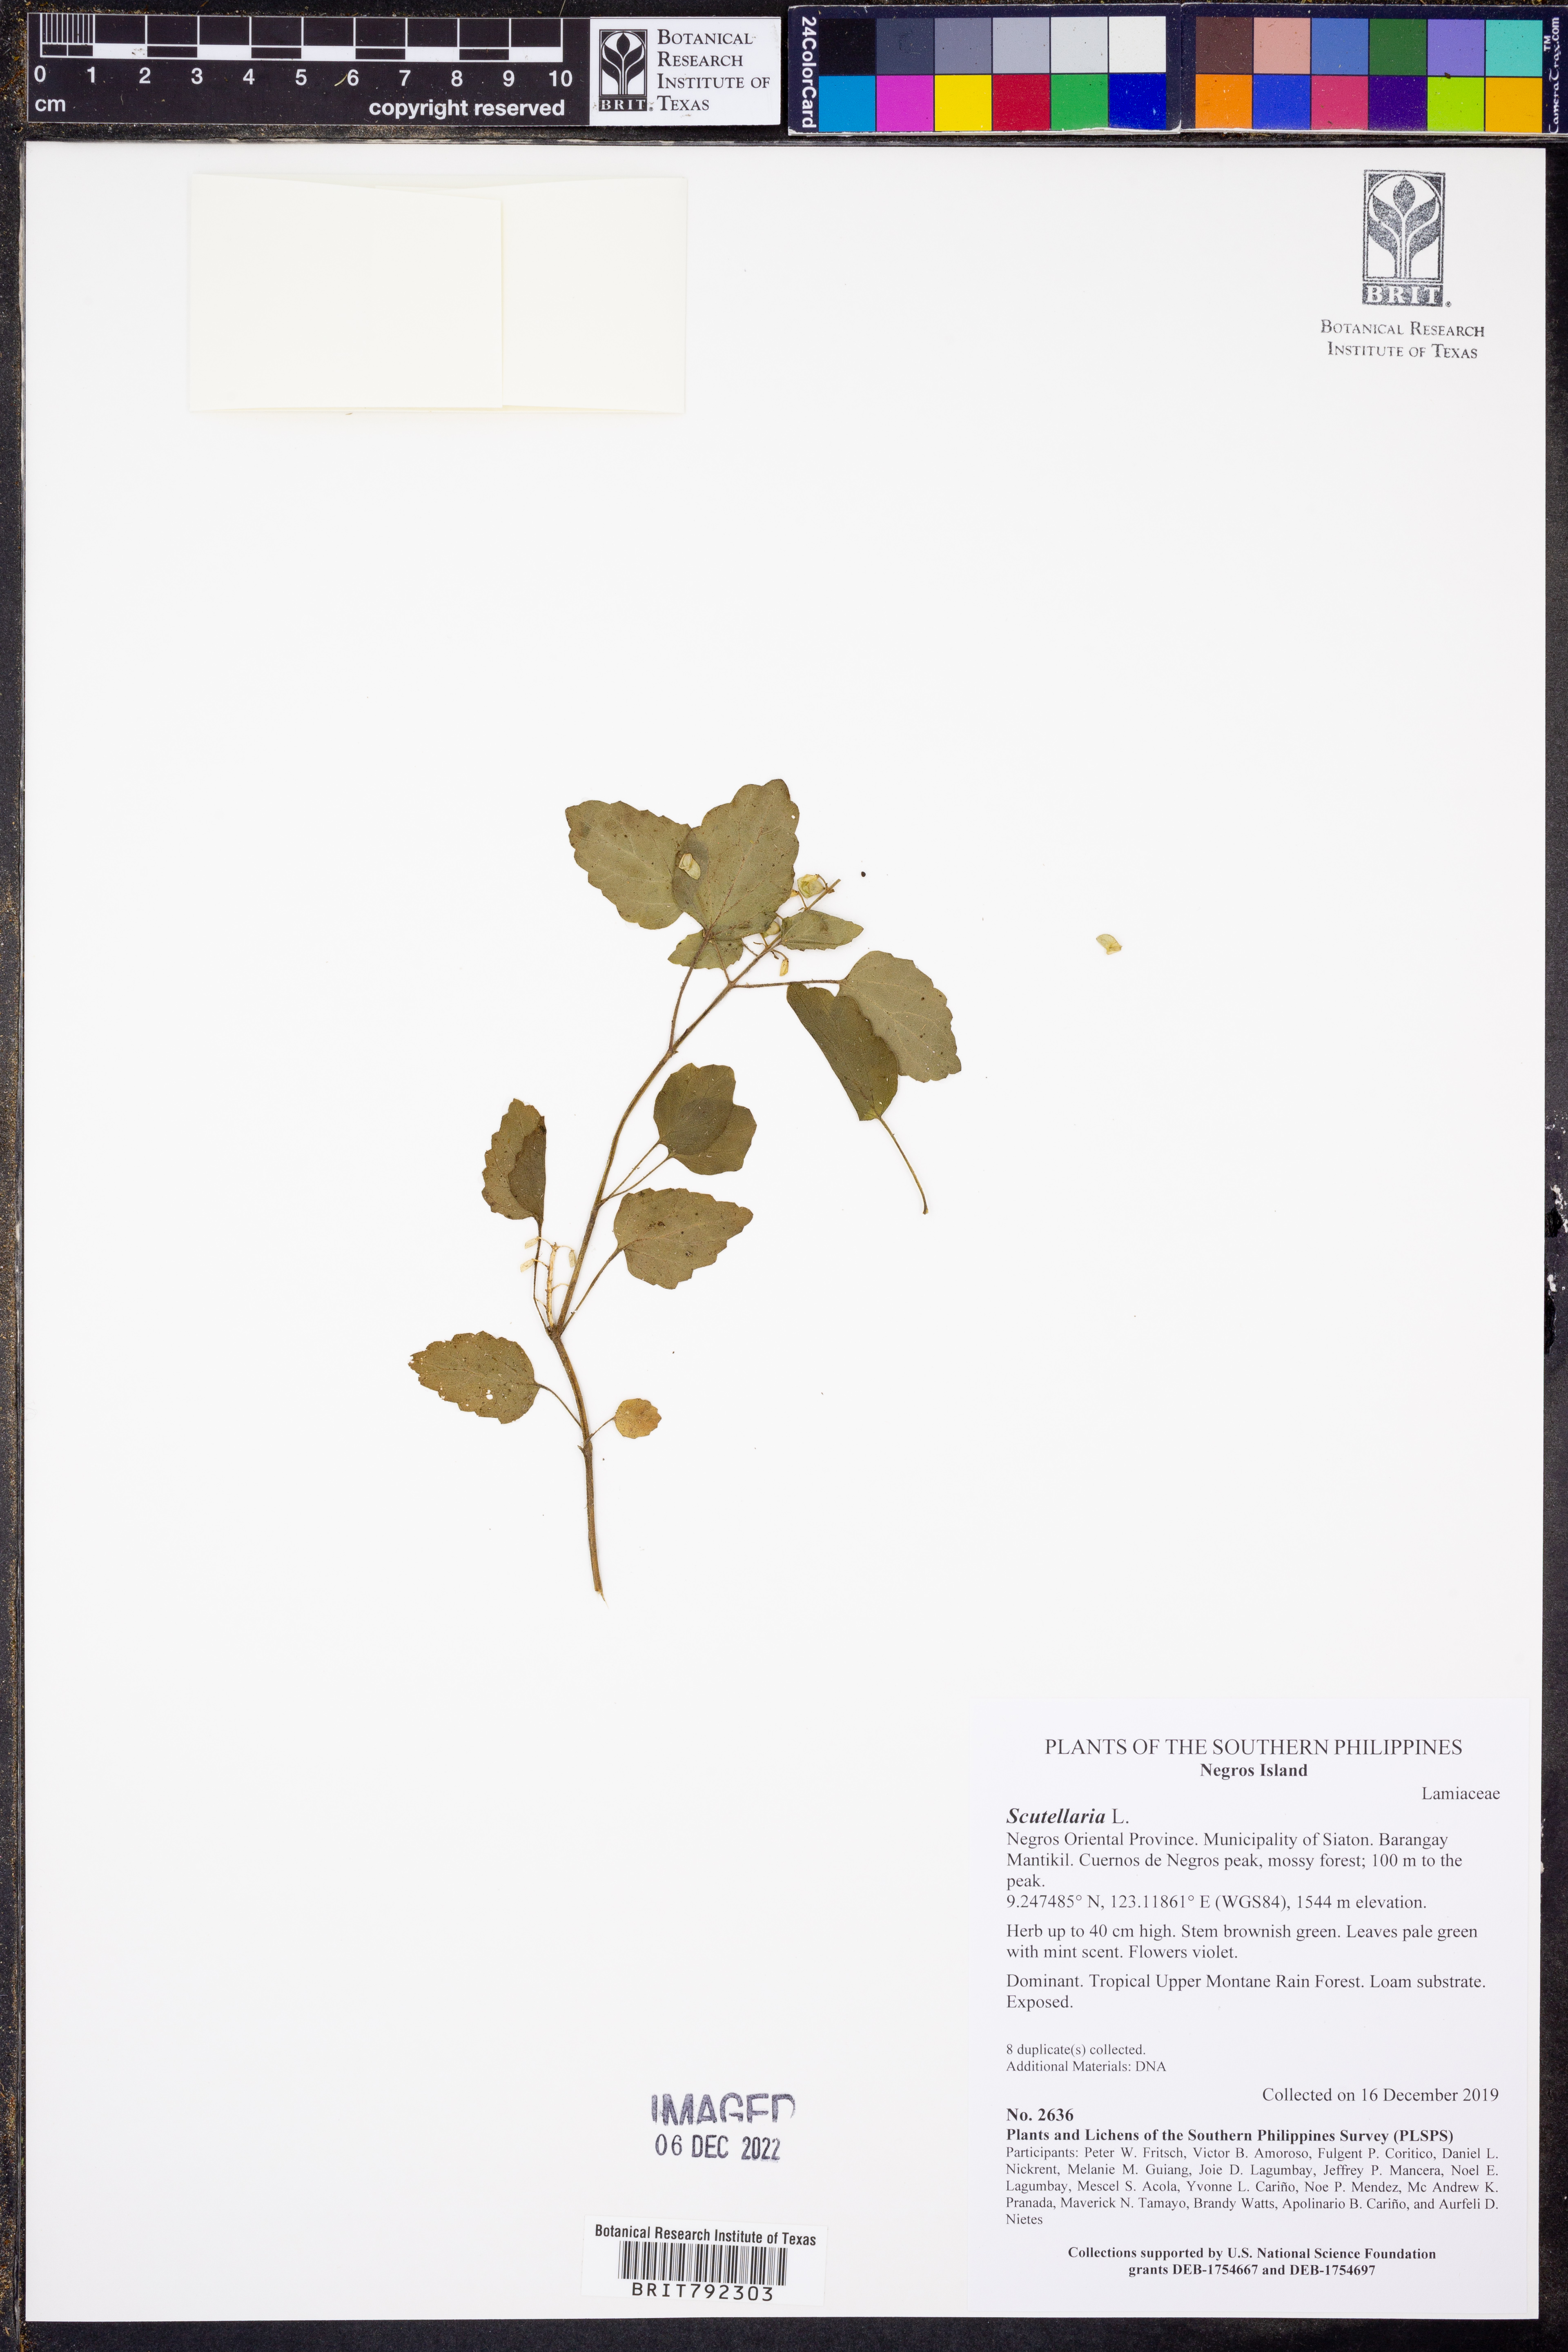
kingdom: Plantae
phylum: Tracheophyta
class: Magnoliopsida
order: Lamiales
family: Lamiaceae
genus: Scutellaria
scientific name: Scutellaria
